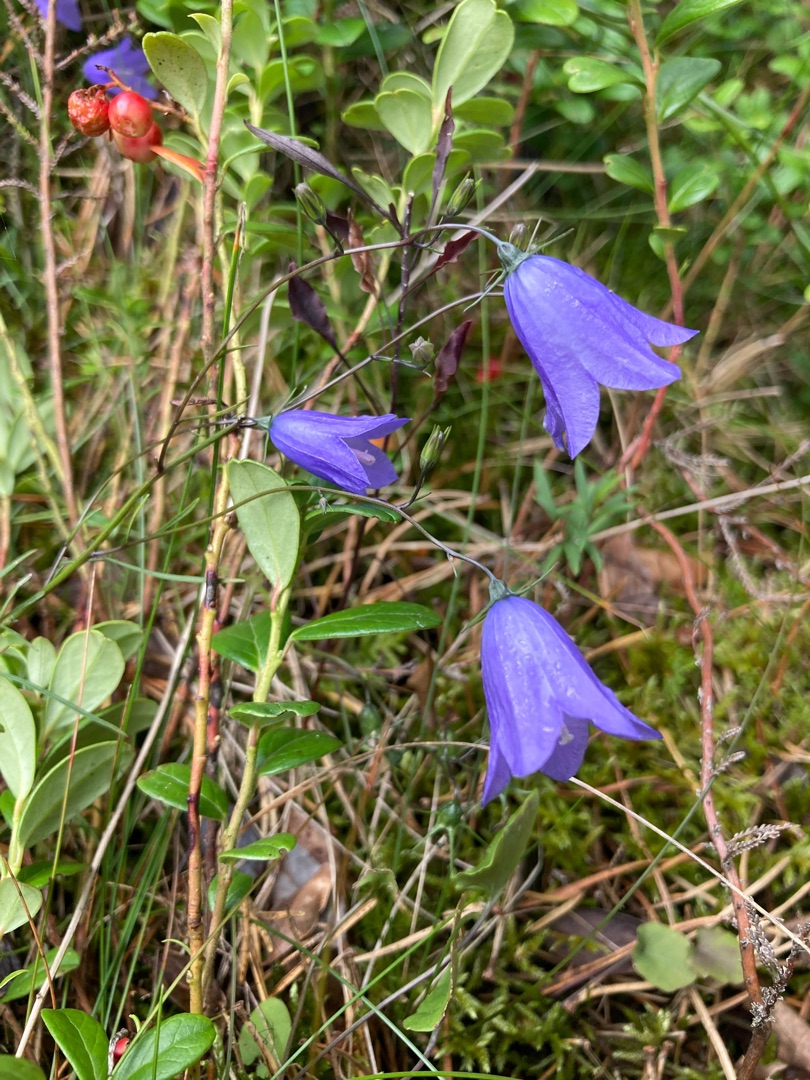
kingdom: Plantae
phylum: Tracheophyta
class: Magnoliopsida
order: Asterales
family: Campanulaceae
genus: Campanula
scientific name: Campanula rotundifolia
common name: Liden klokke
